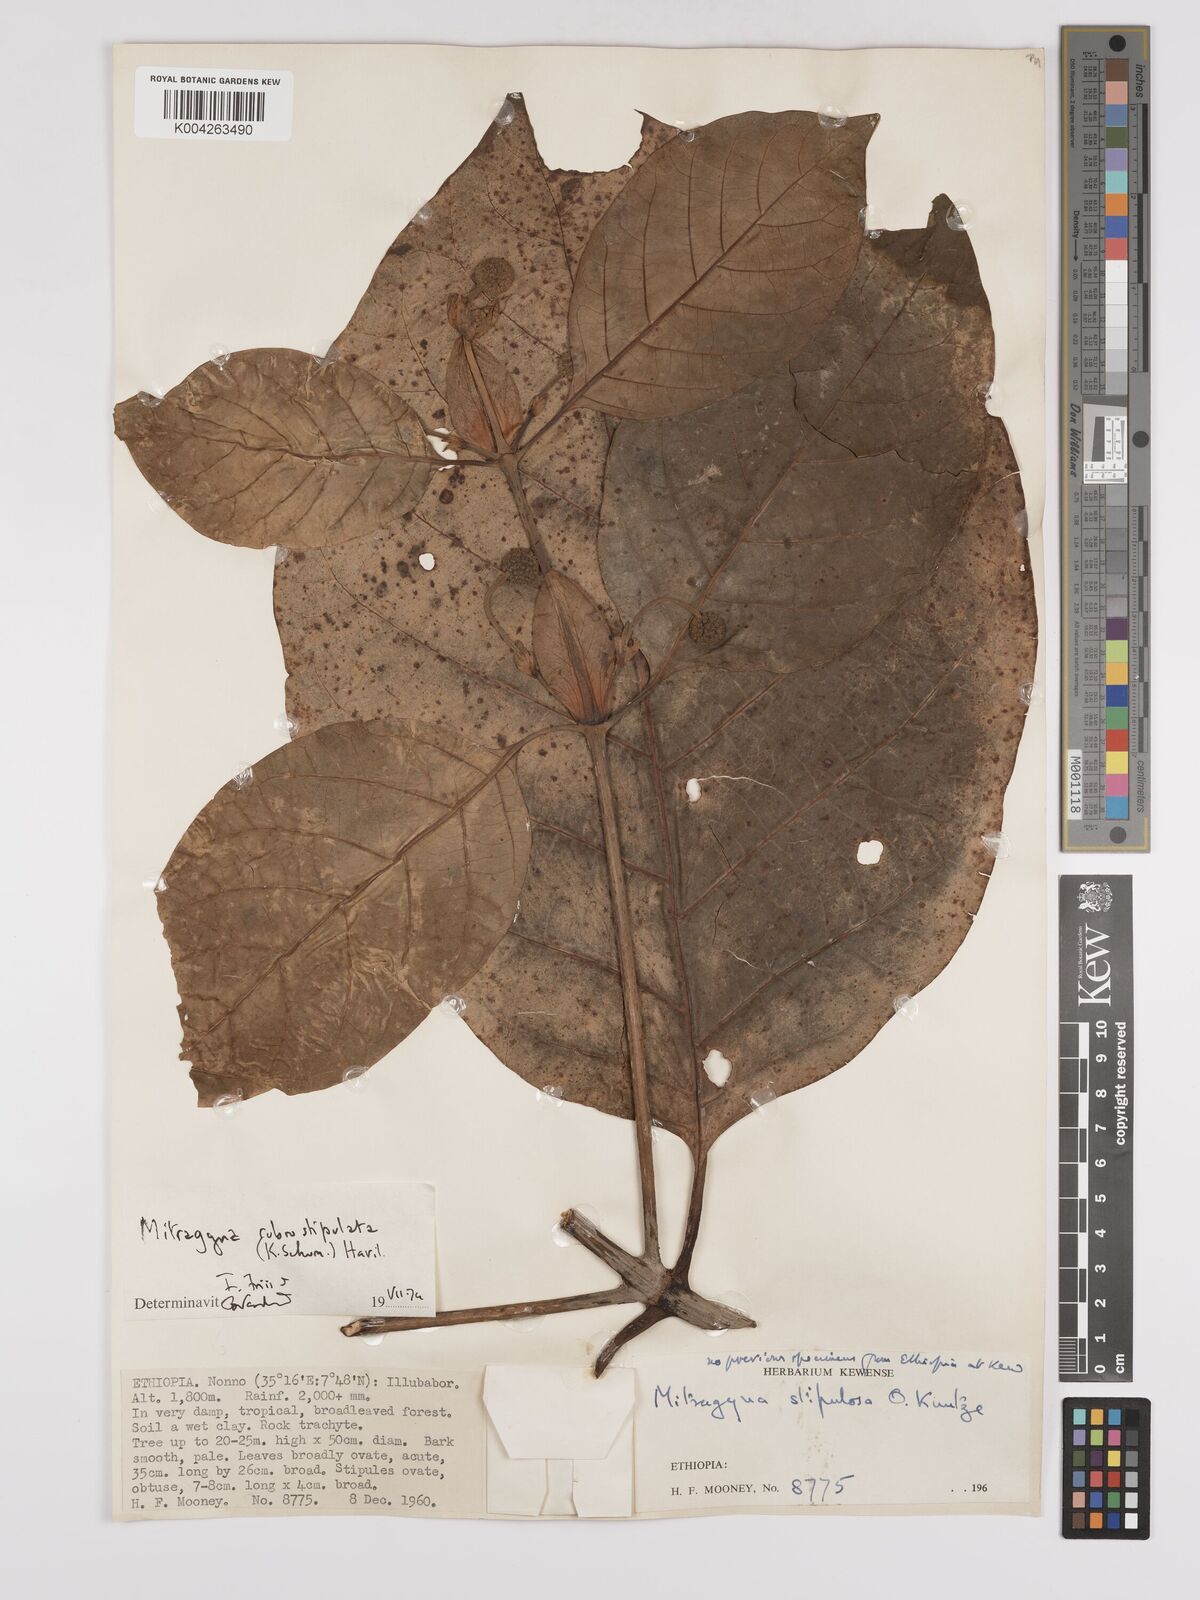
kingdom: Plantae
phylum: Tracheophyta
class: Magnoliopsida
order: Gentianales
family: Rubiaceae
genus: Mitragyna
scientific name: Mitragyna rubrostipulata
